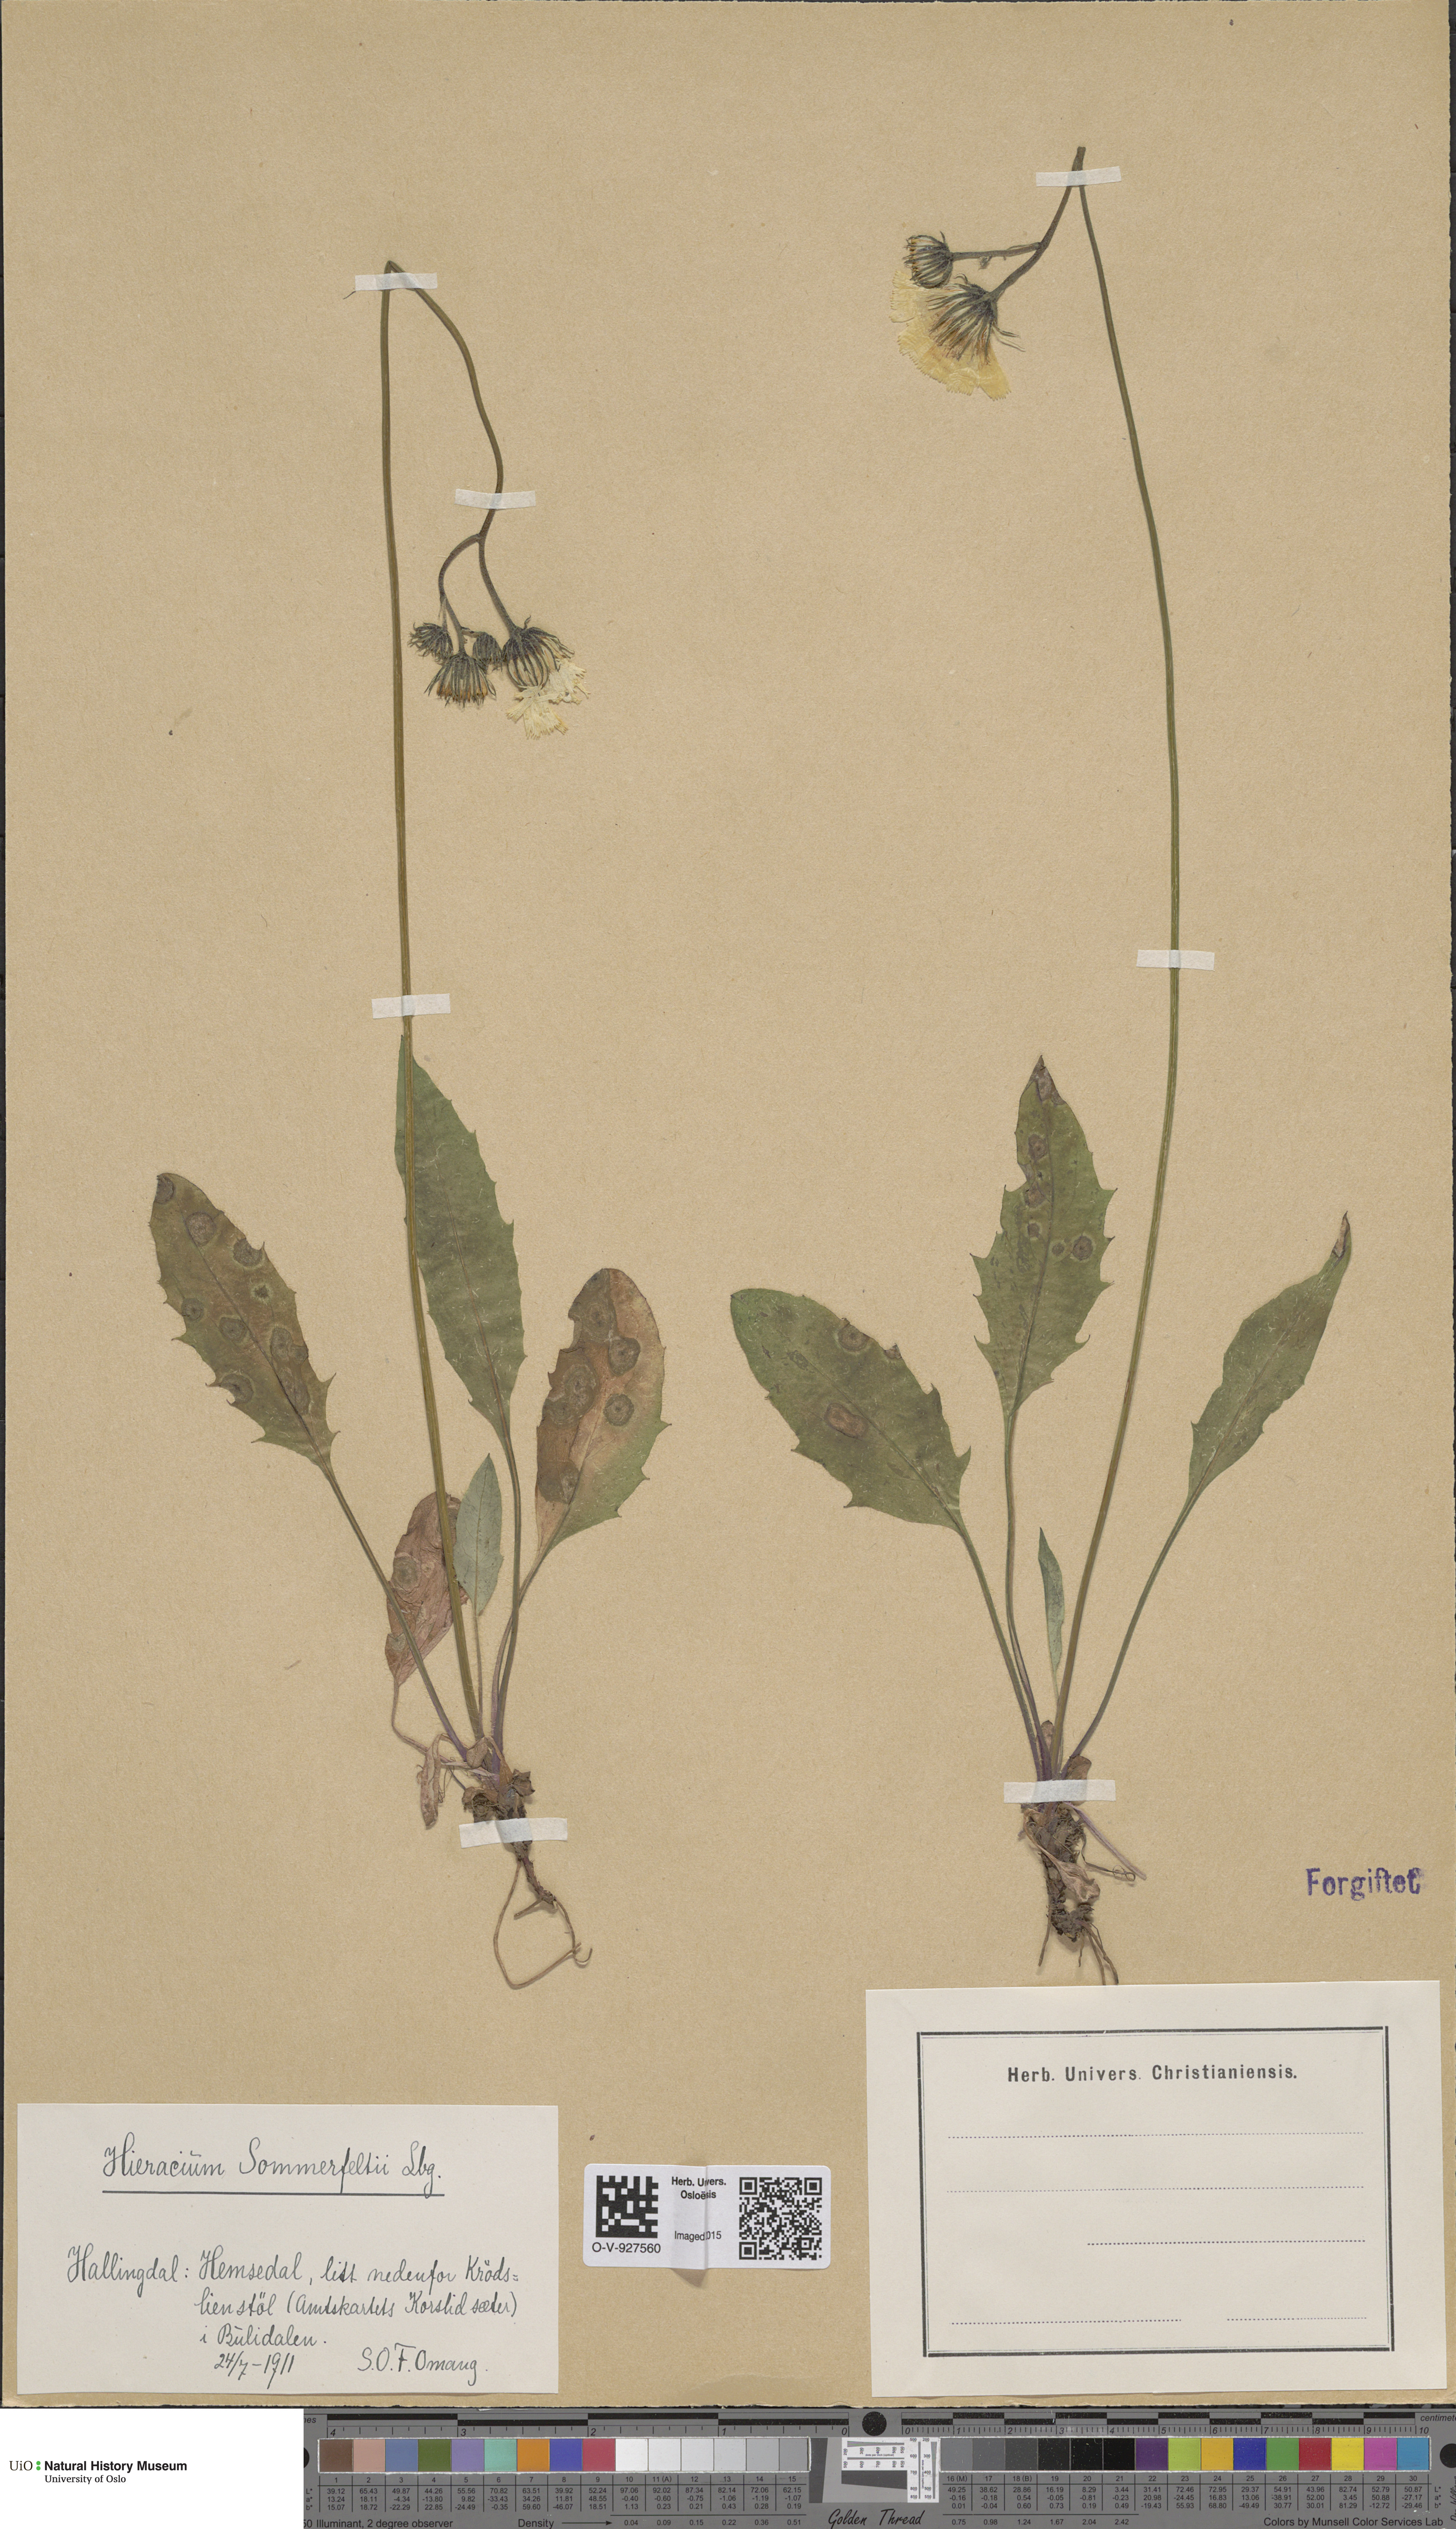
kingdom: Plantae
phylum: Tracheophyta
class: Magnoliopsida
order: Asterales
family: Asteraceae
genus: Hieracium
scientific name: Hieracium sommerfeltii
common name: Sommerfelt's hawkweed
